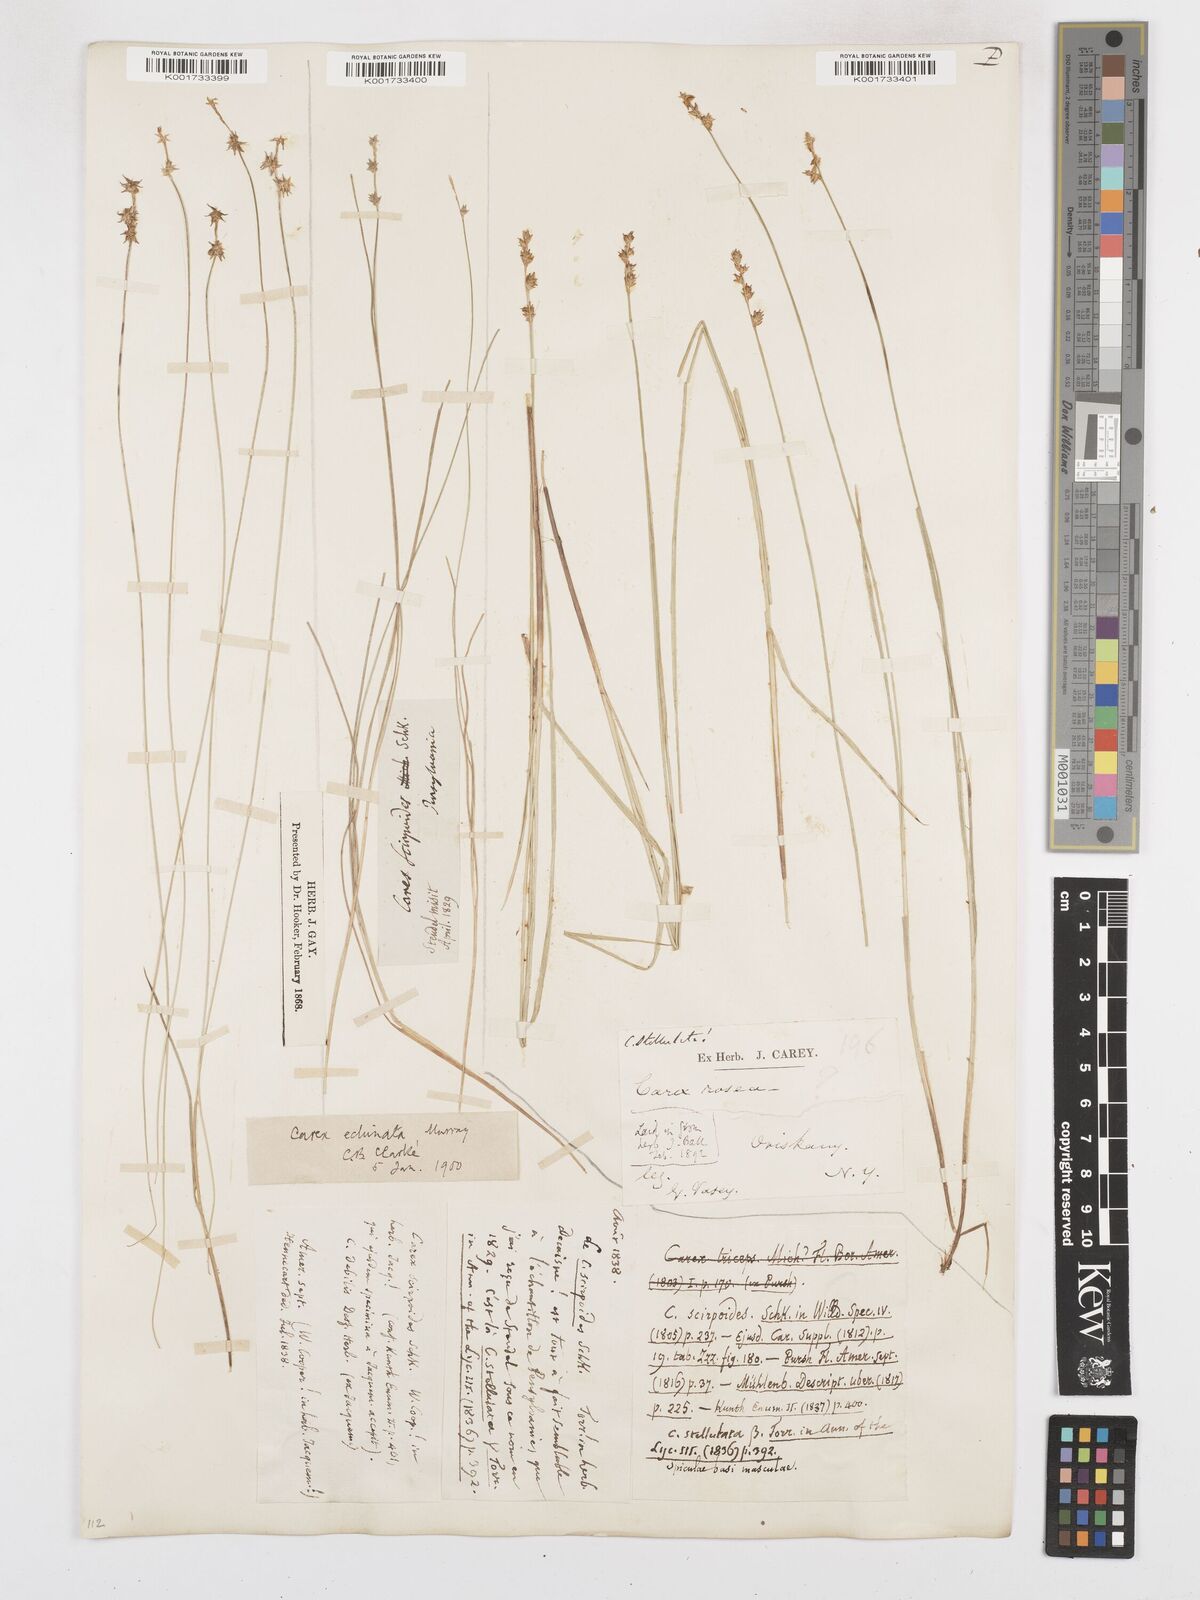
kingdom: Plantae
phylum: Tracheophyta
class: Liliopsida
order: Poales
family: Cyperaceae
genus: Carex
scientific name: Carex echinata
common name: Star sedge
